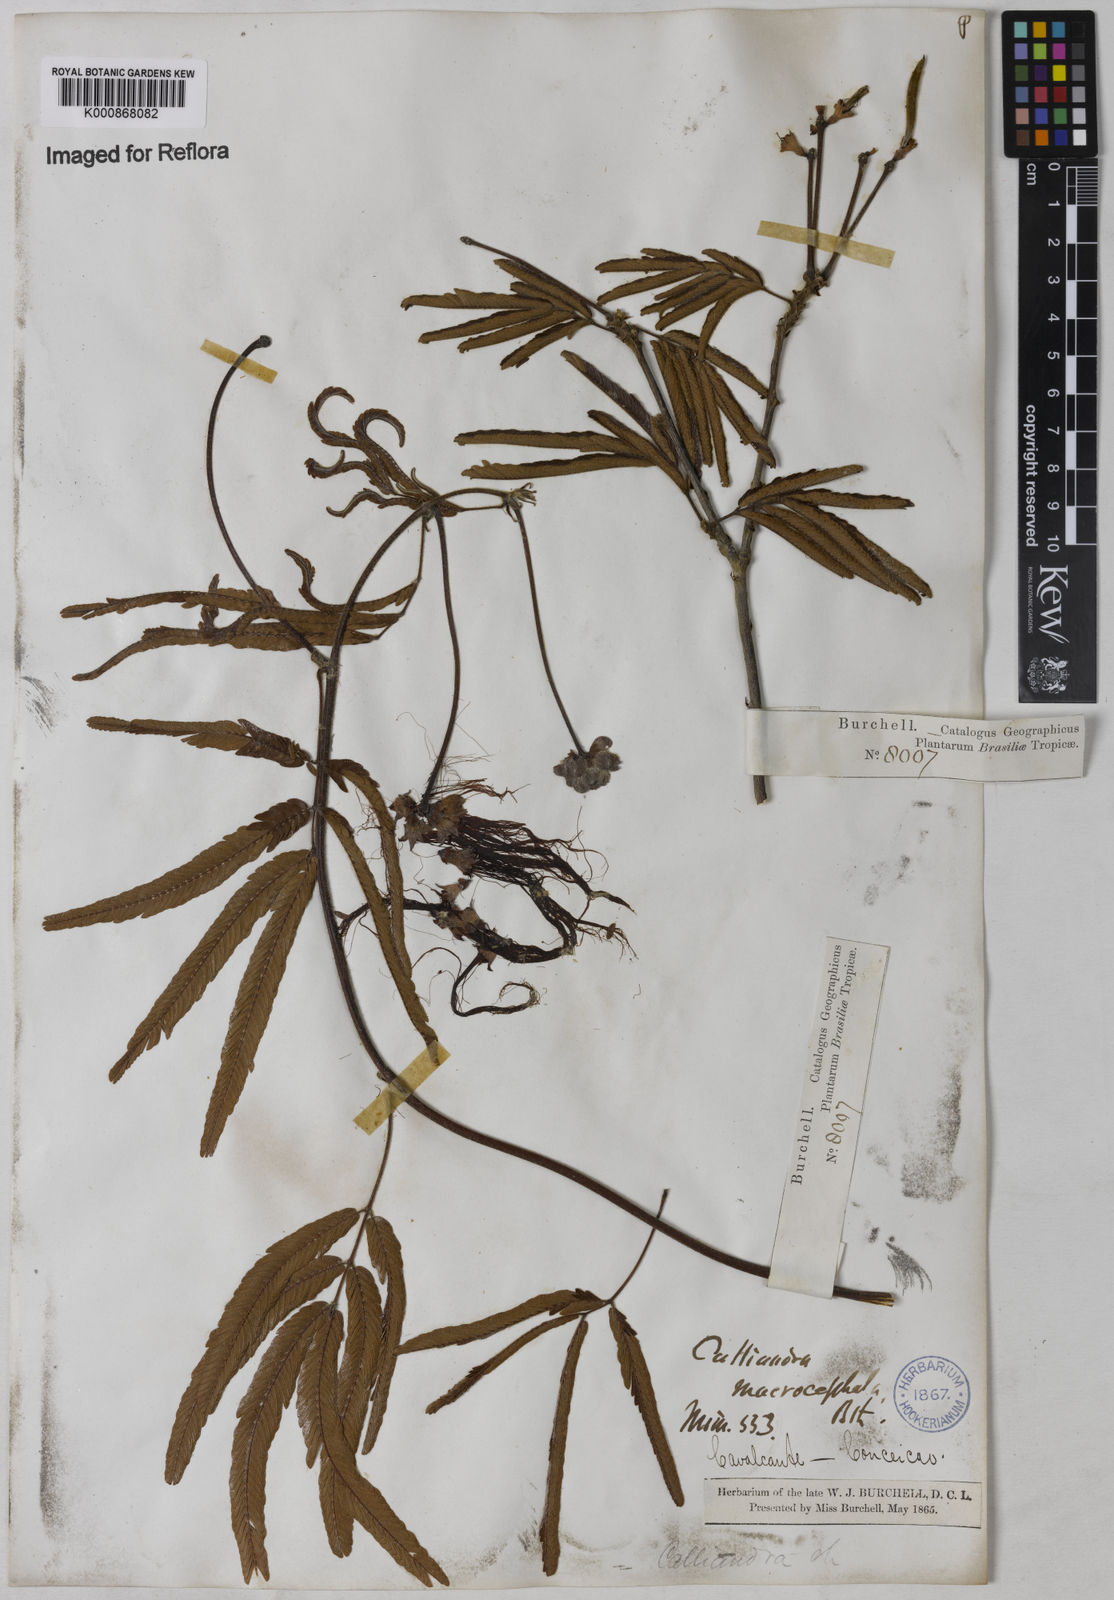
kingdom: Plantae
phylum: Tracheophyta
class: Magnoliopsida
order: Fabales
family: Fabaceae
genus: Calliandra
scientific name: Calliandra dysantha
